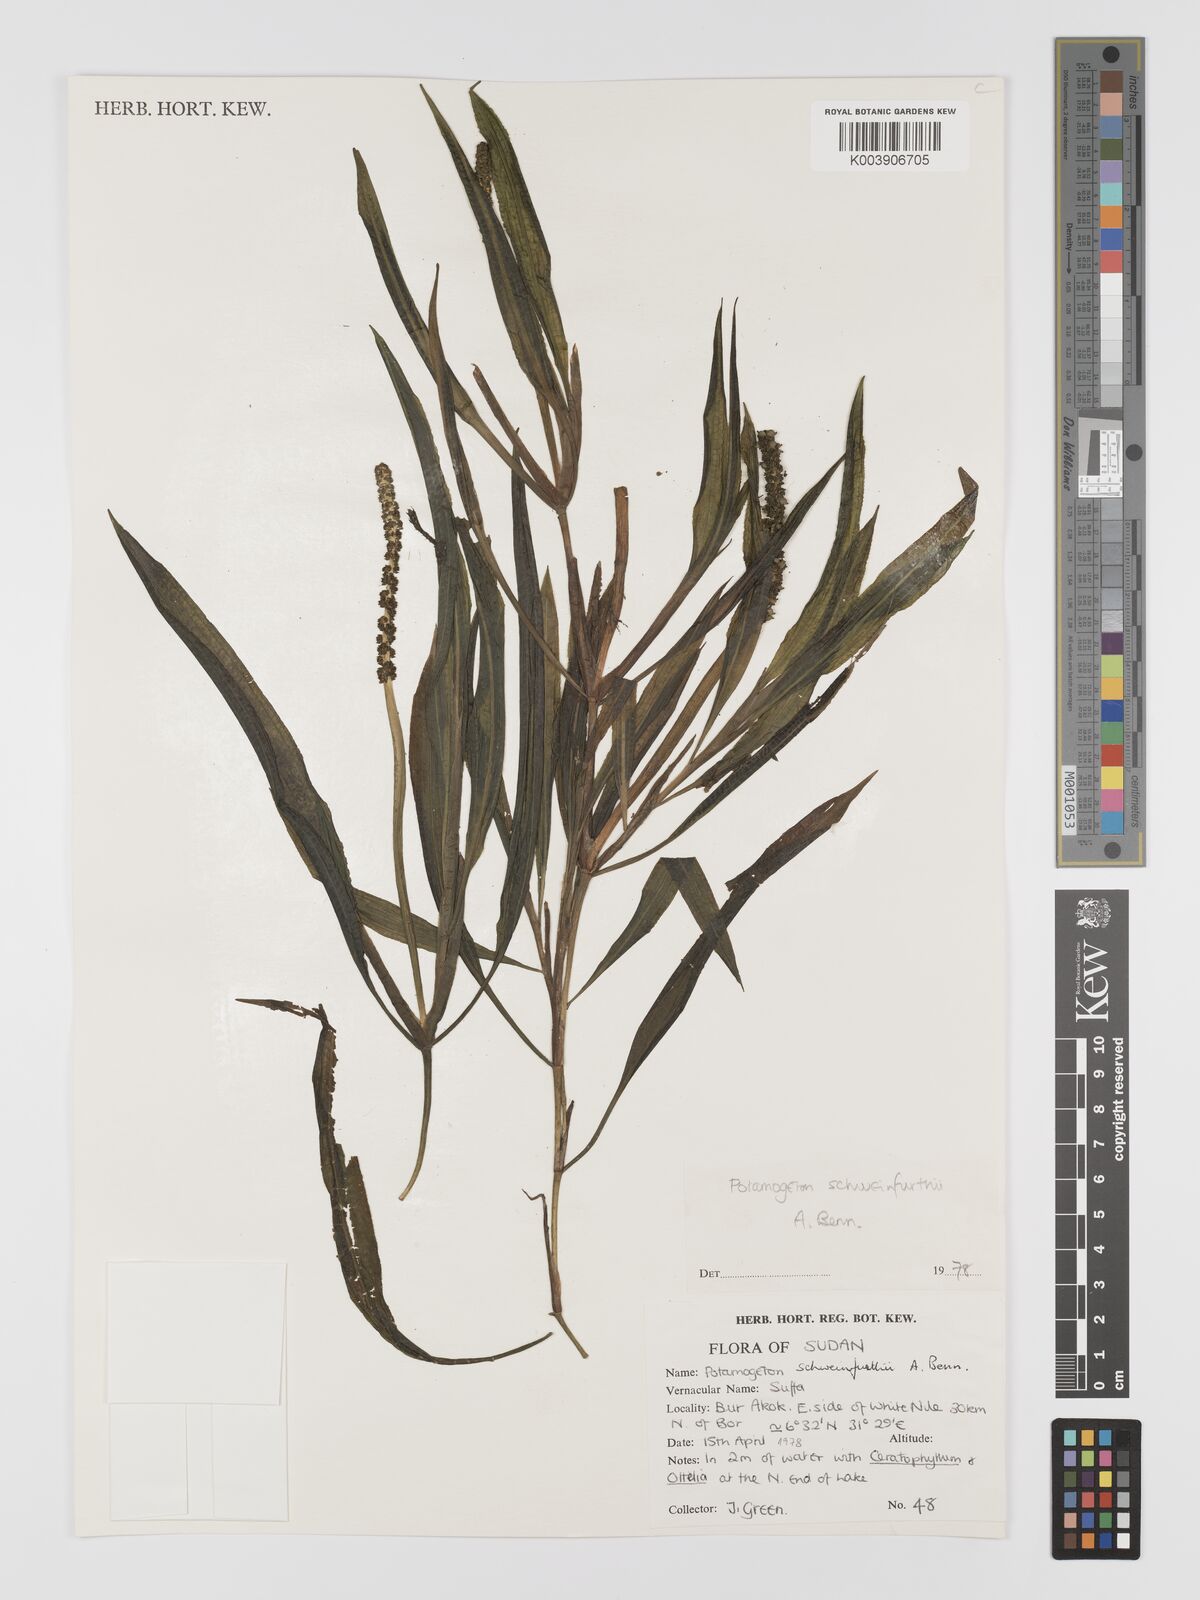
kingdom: Plantae
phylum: Tracheophyta
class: Liliopsida
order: Alismatales
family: Potamogetonaceae
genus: Potamogeton
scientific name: Potamogeton schweinfurthii
